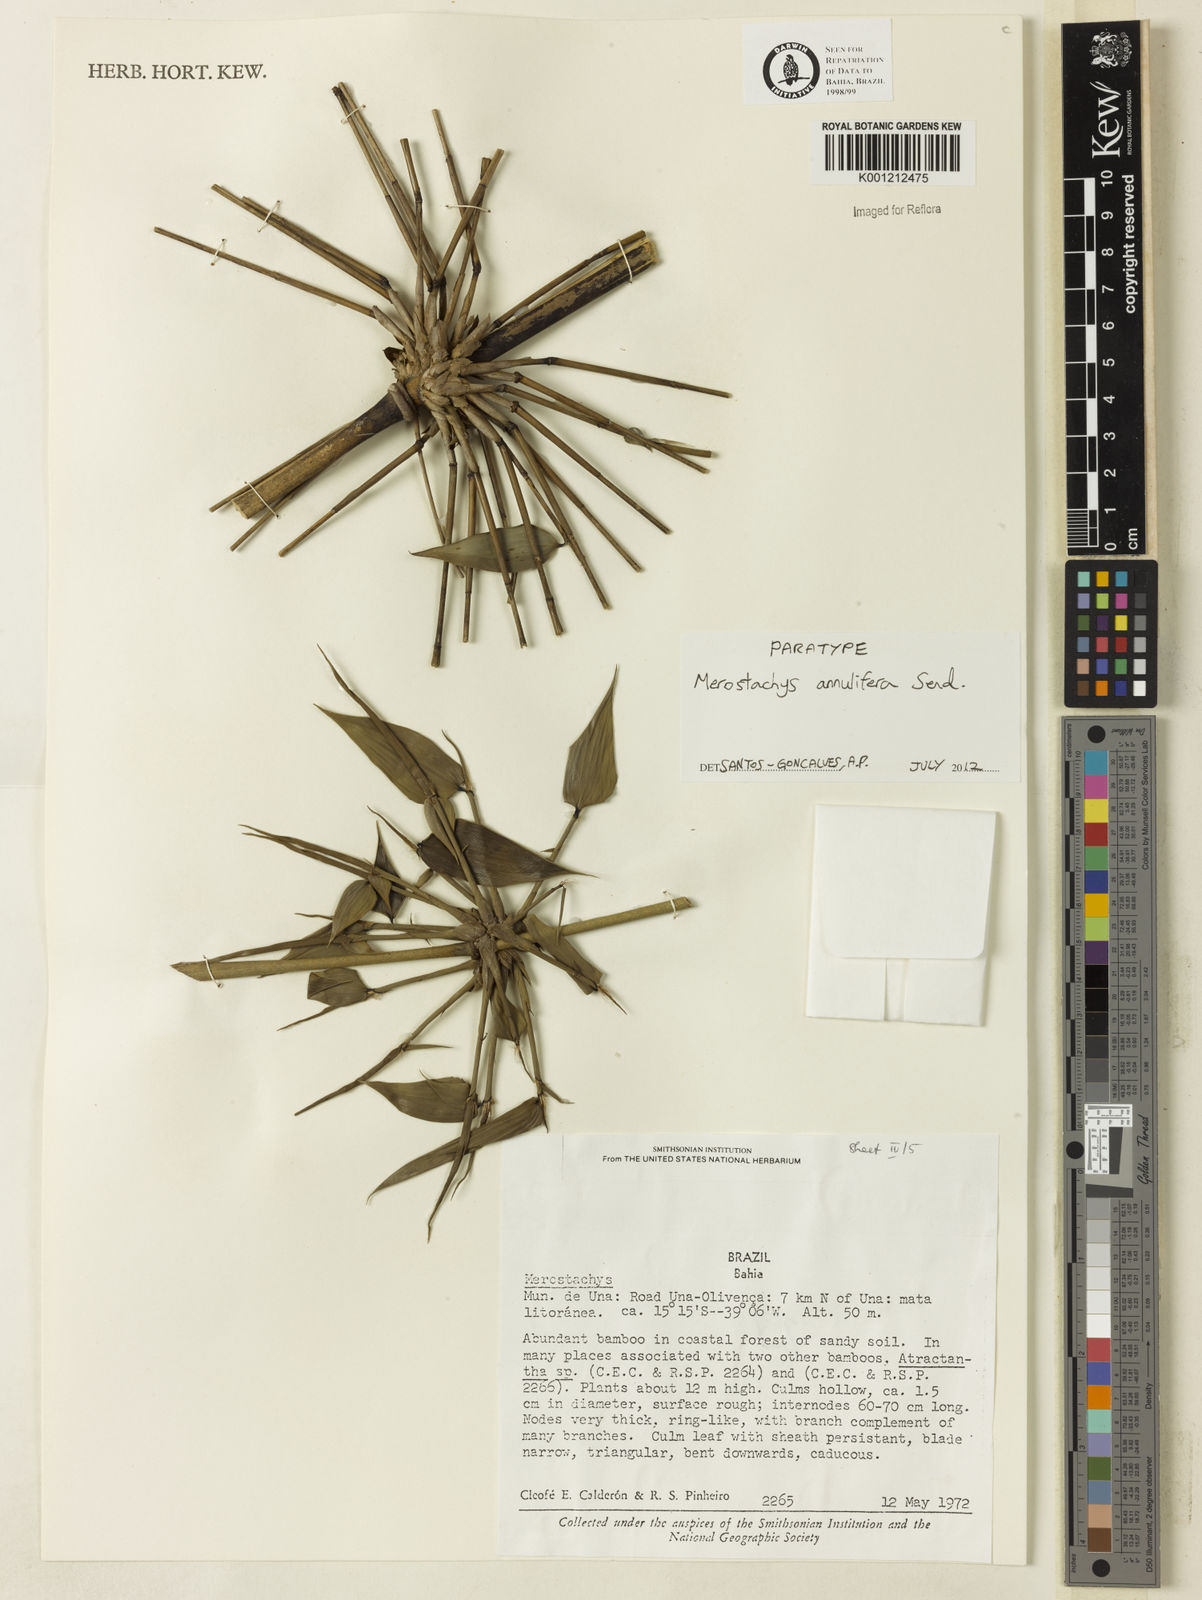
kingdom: Plantae
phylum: Tracheophyta
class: Liliopsida
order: Poales
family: Poaceae
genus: Merostachys
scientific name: Merostachys annulifera
